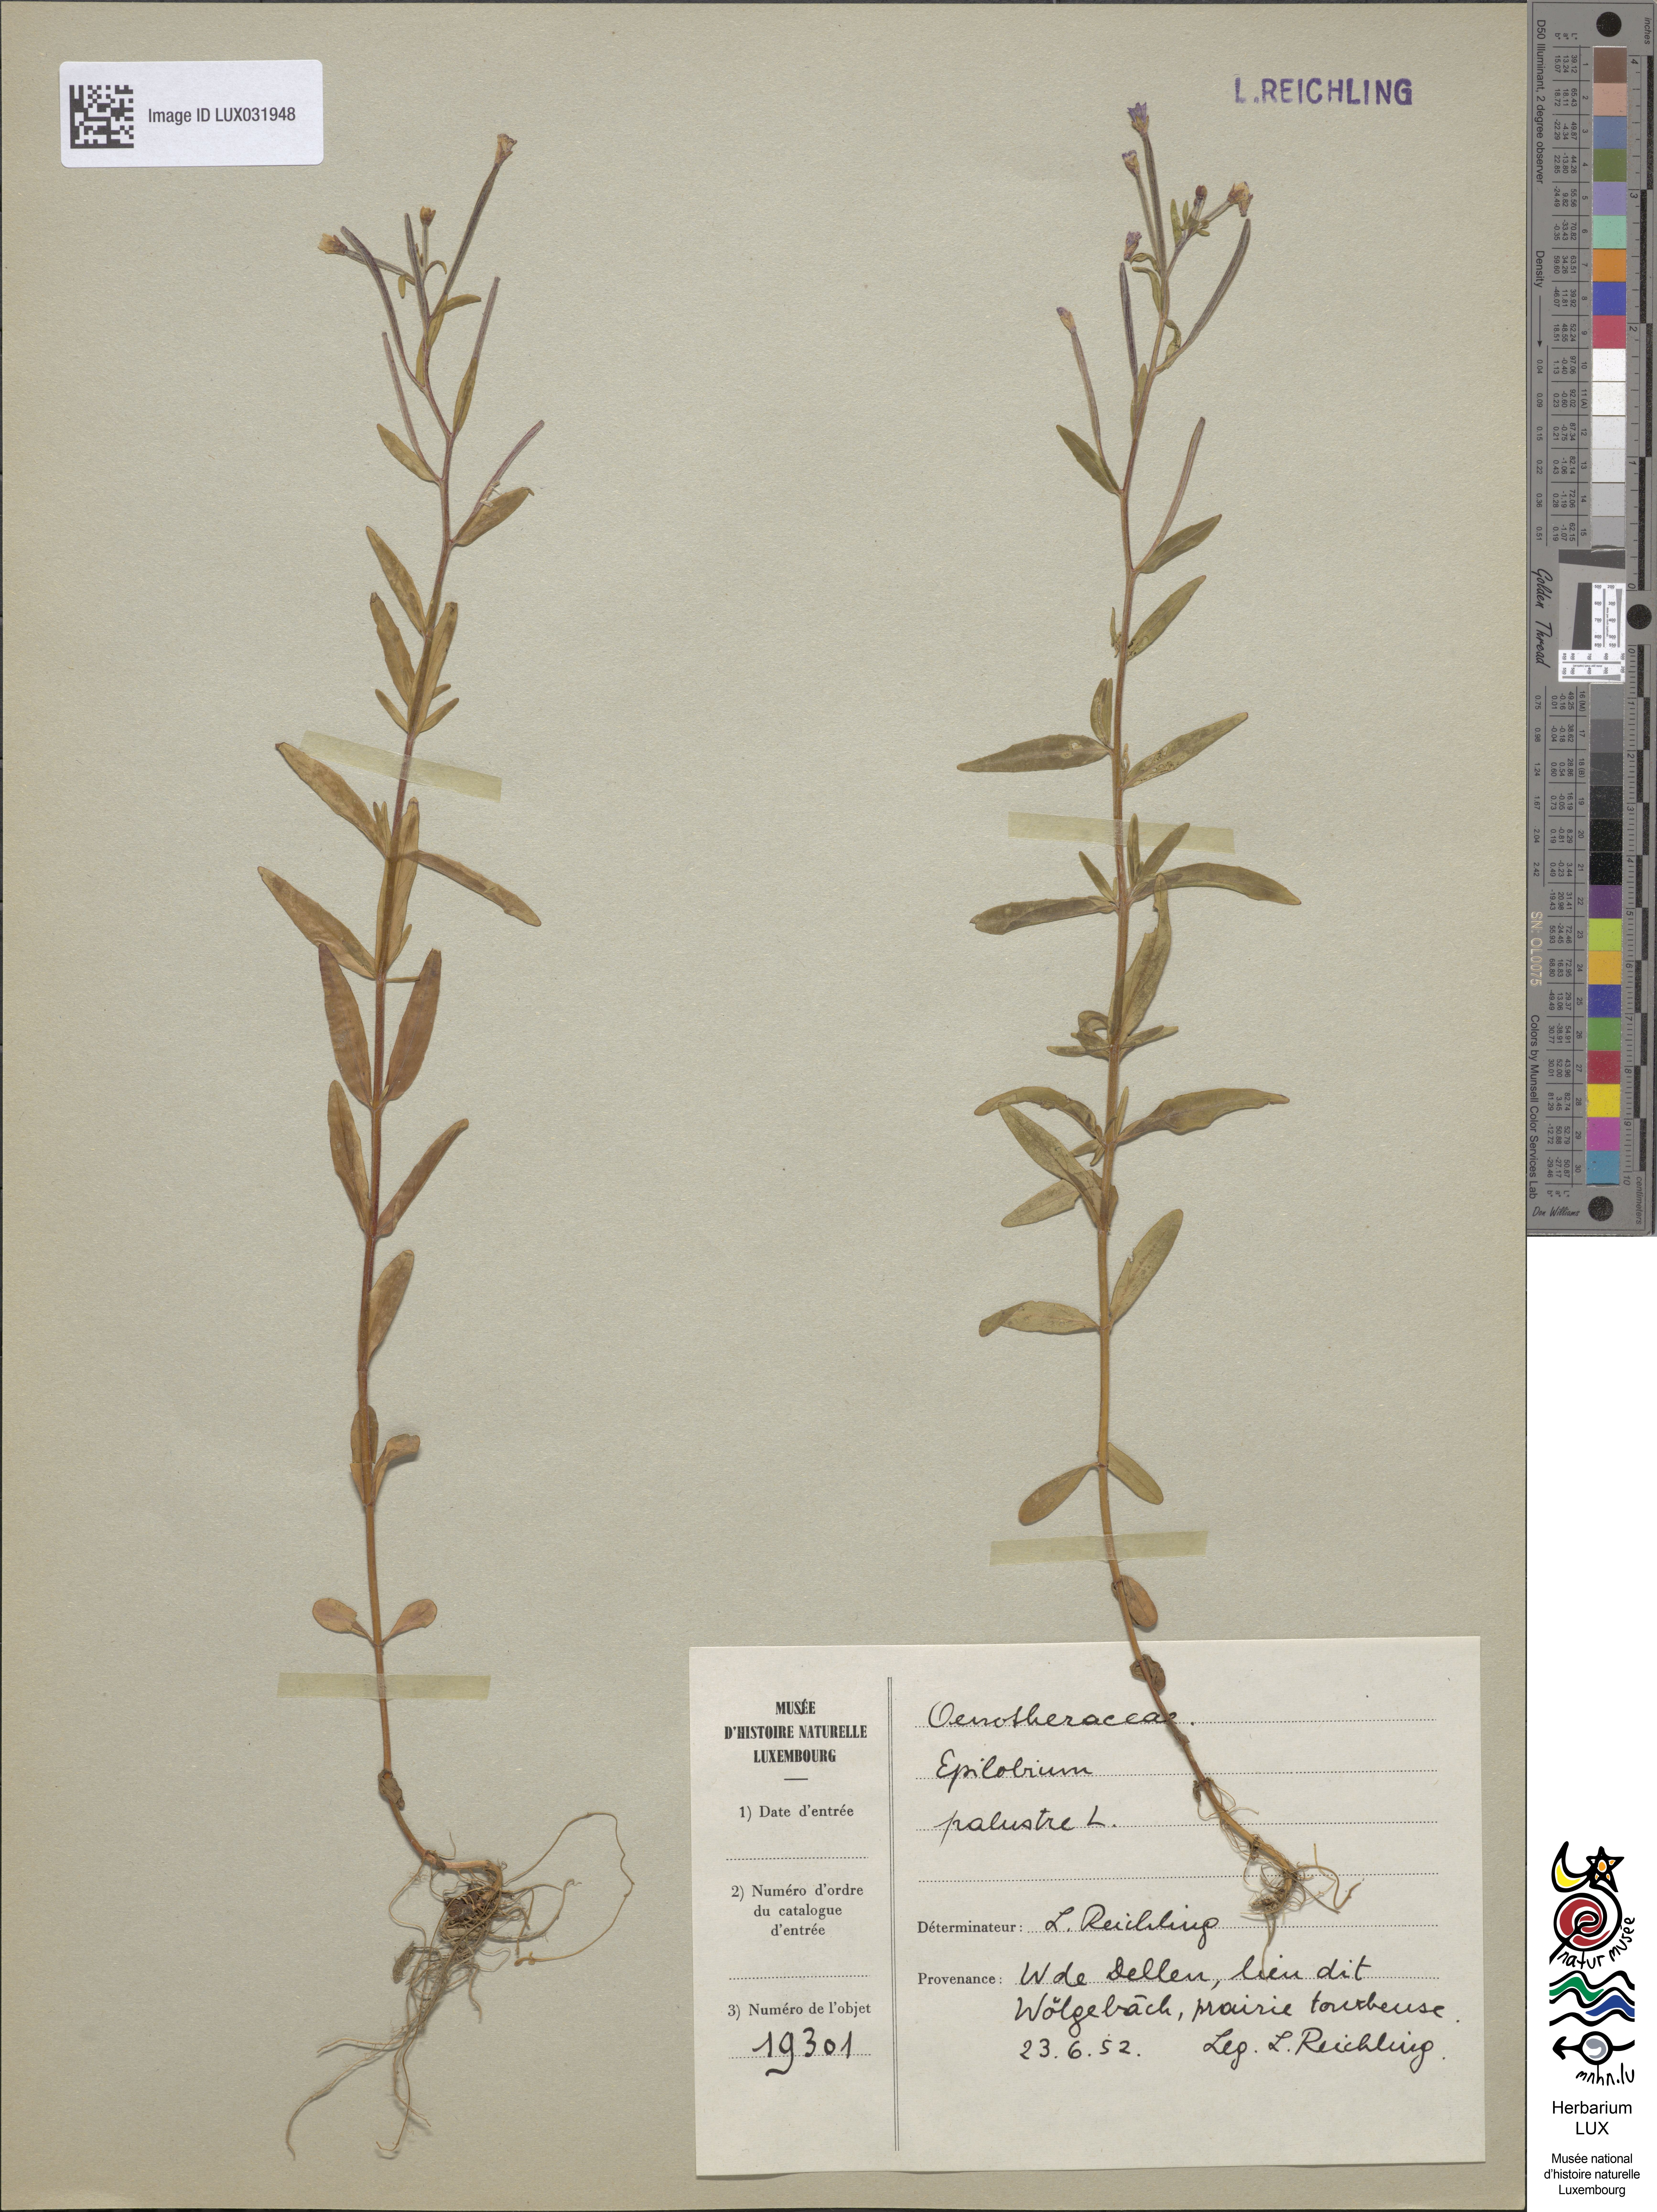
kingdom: Plantae
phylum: Tracheophyta
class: Magnoliopsida
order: Myrtales
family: Onagraceae
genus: Epilobium
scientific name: Epilobium palustre
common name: Marsh willowherb
